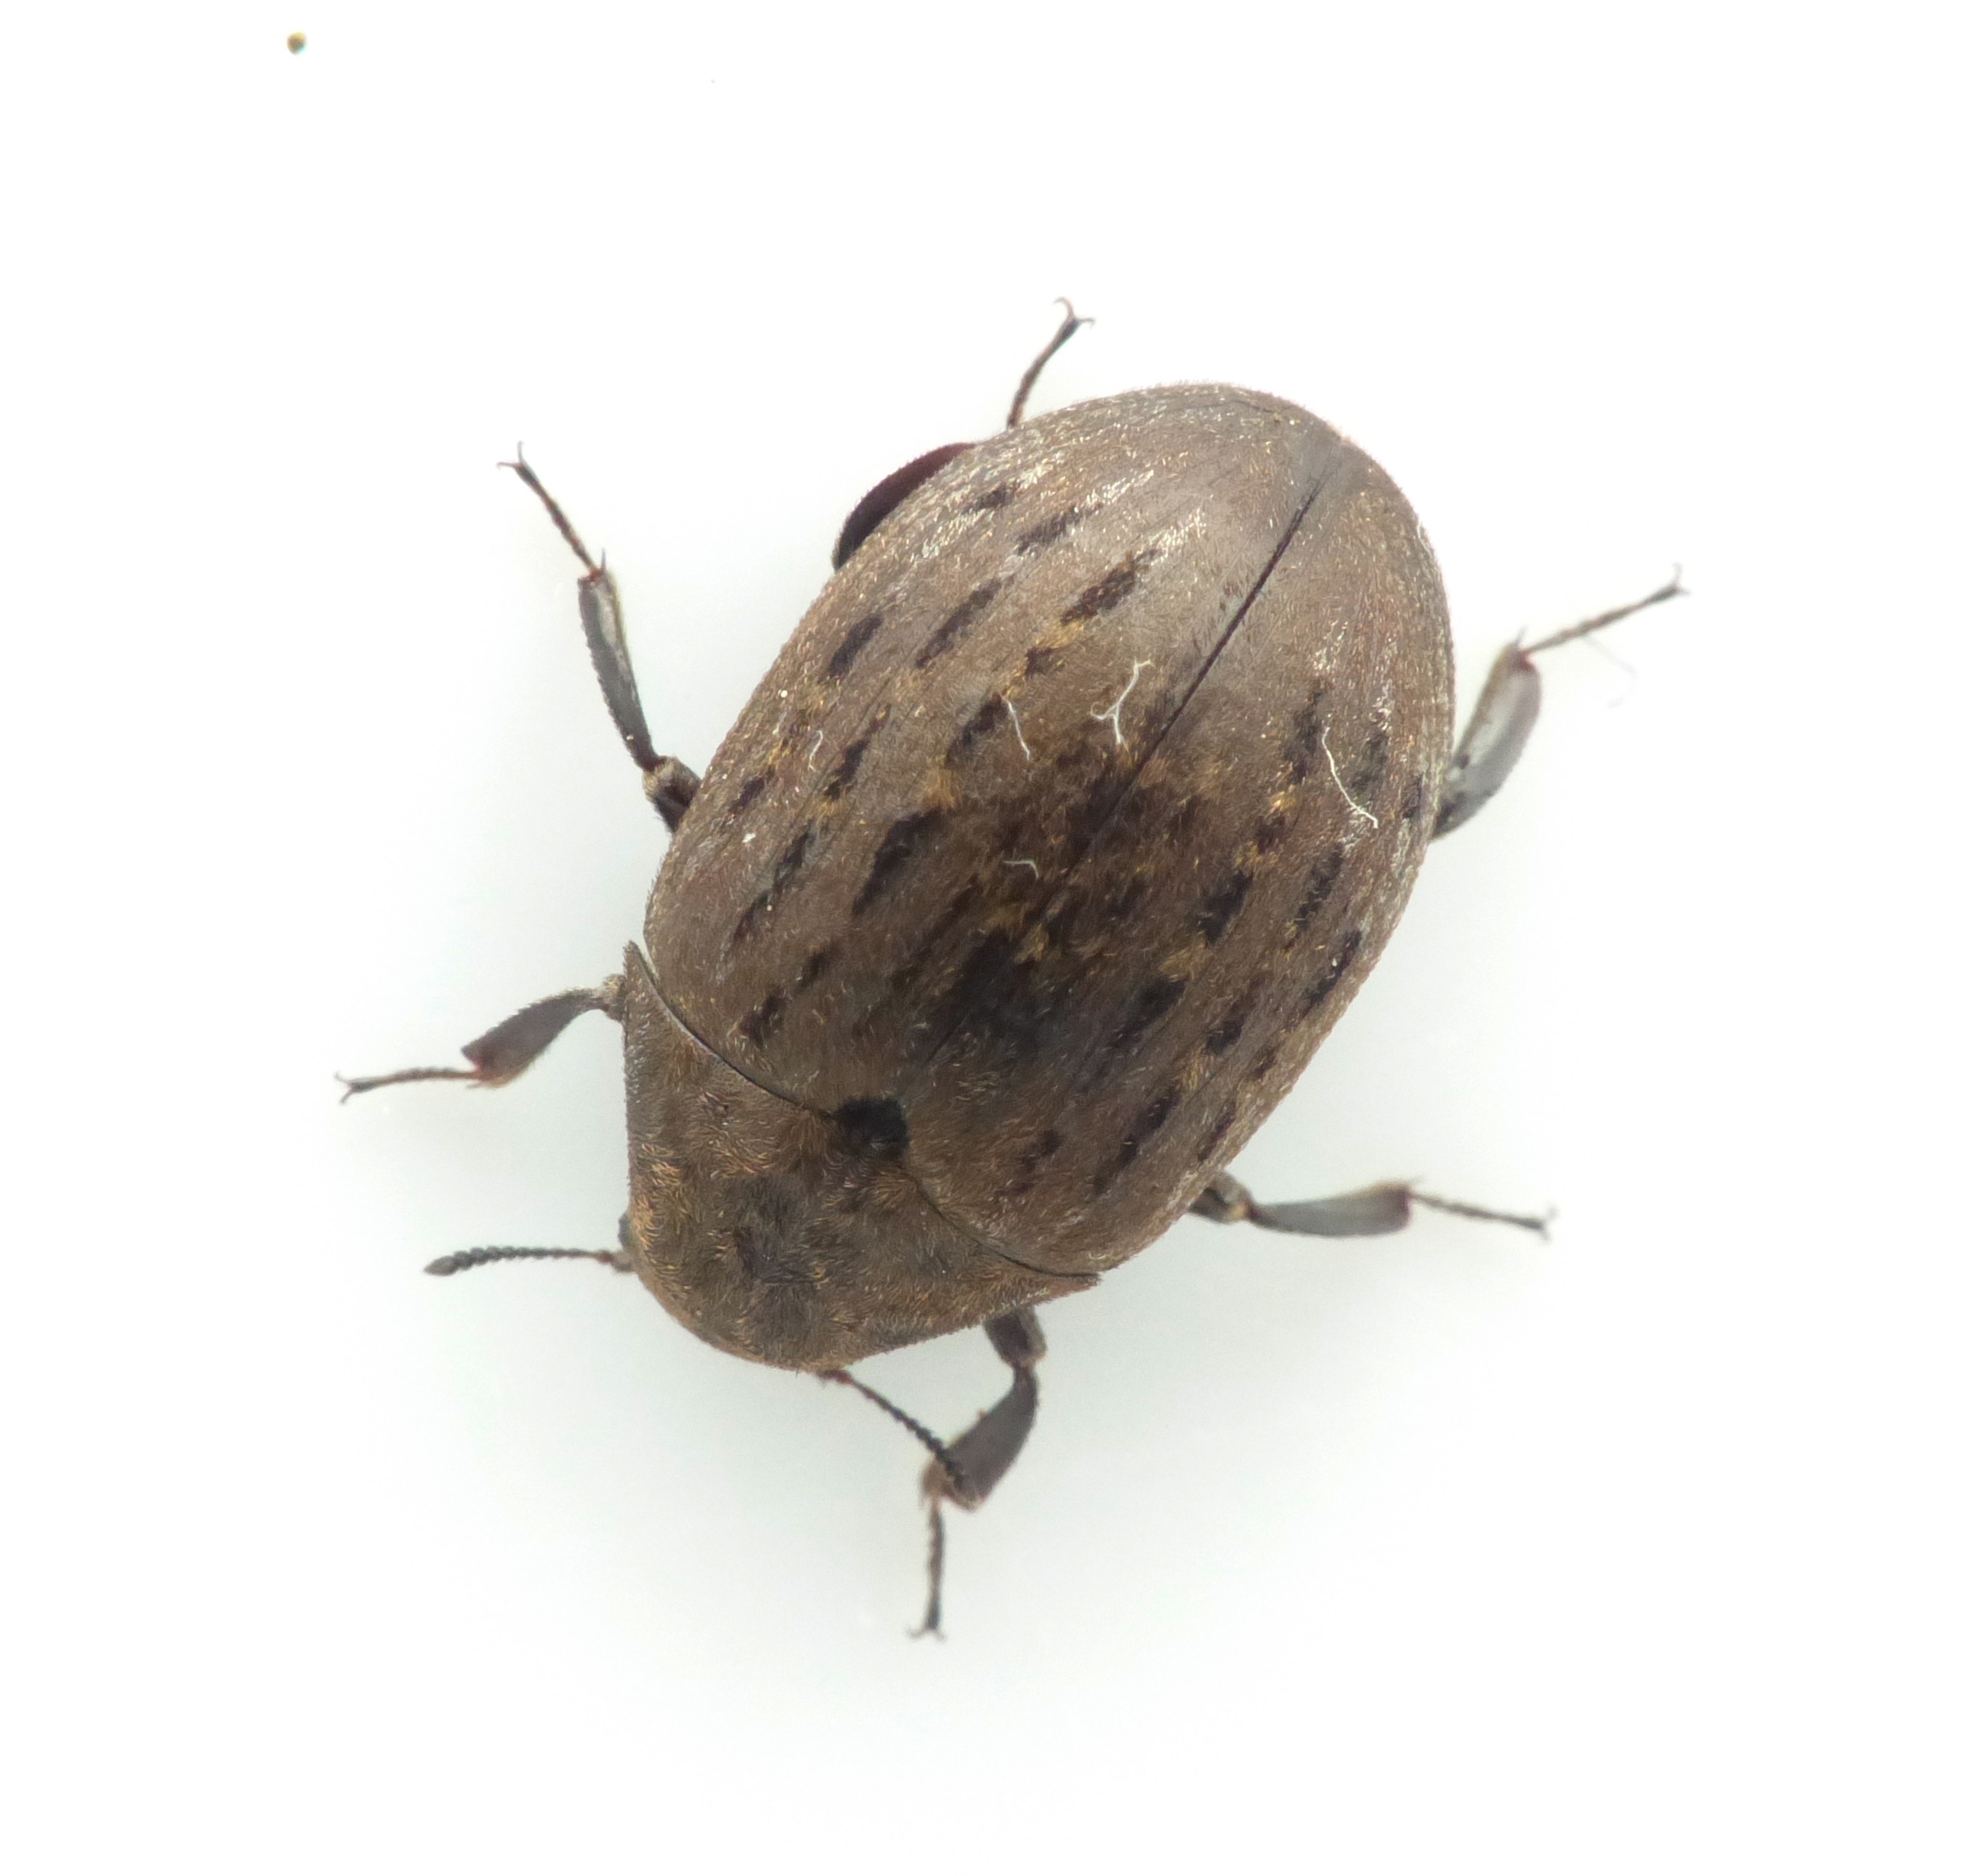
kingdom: Animalia
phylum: Arthropoda
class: Insecta
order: Coleoptera
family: Byrrhidae
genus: Byrrhus
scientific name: Byrrhus pilula
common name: Almindelig ødebille
